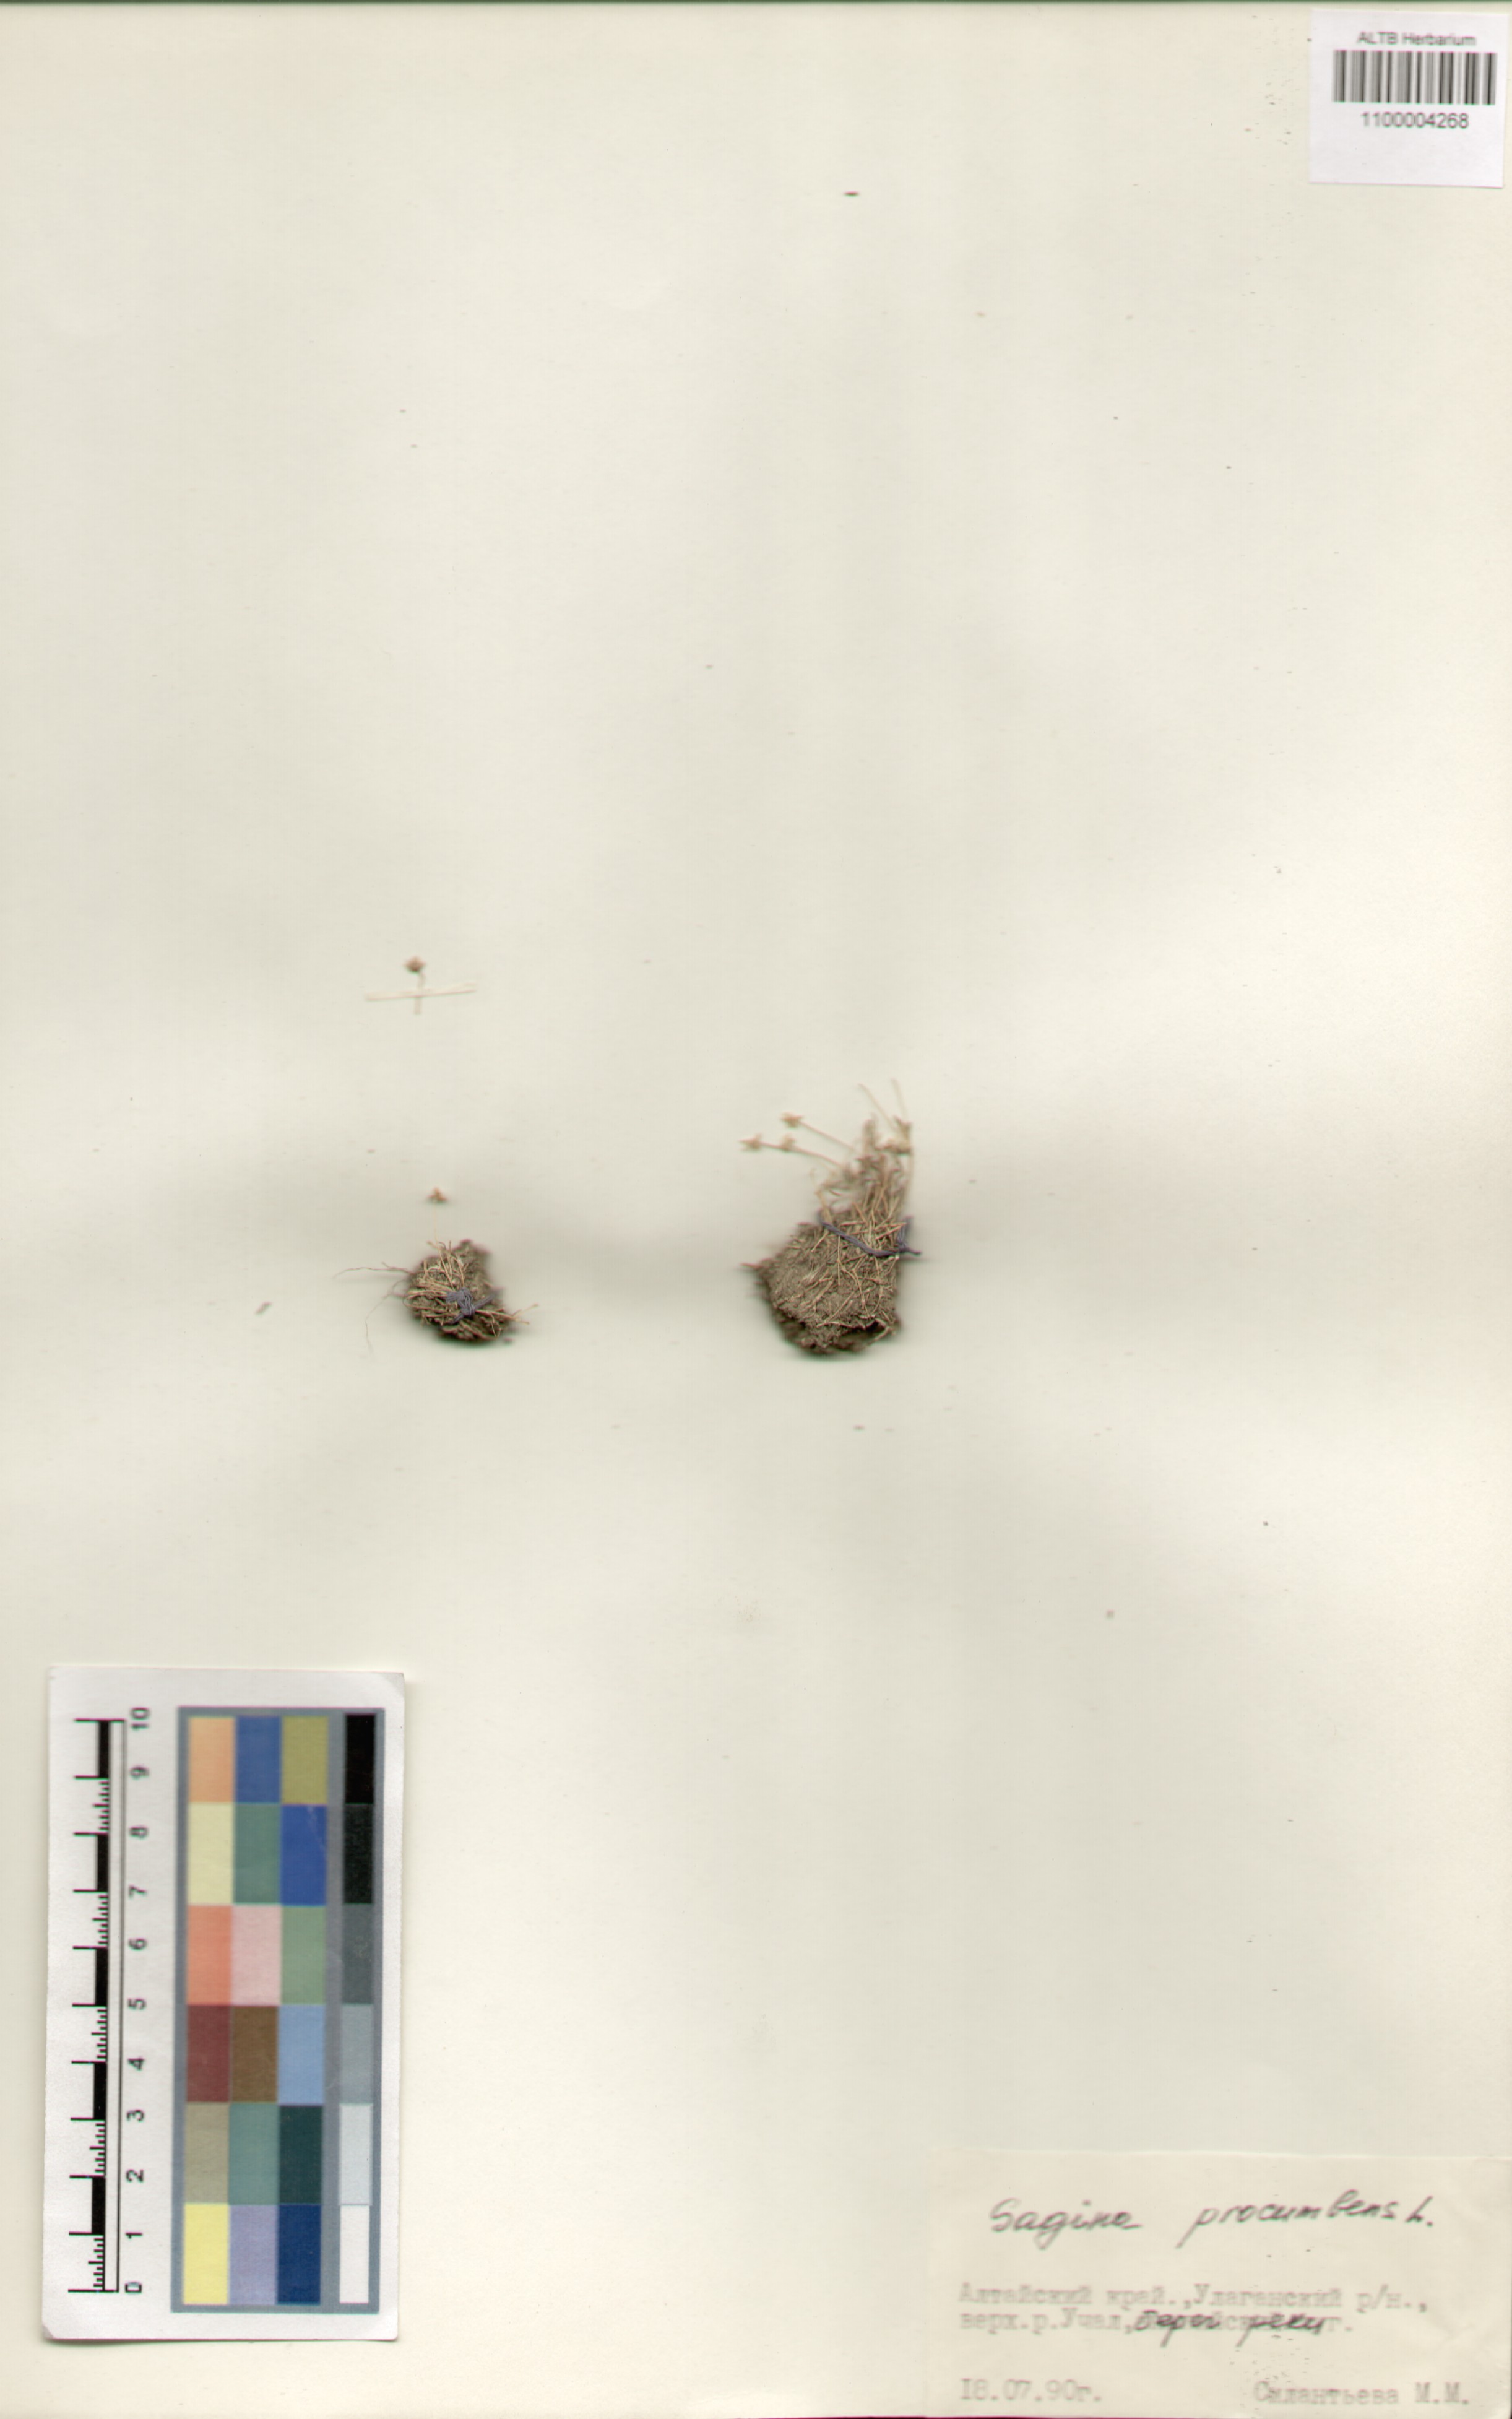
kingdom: Plantae
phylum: Tracheophyta
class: Magnoliopsida
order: Caryophyllales
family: Caryophyllaceae
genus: Sagina
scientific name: Sagina procumbens
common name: Procumbent pearlwort
